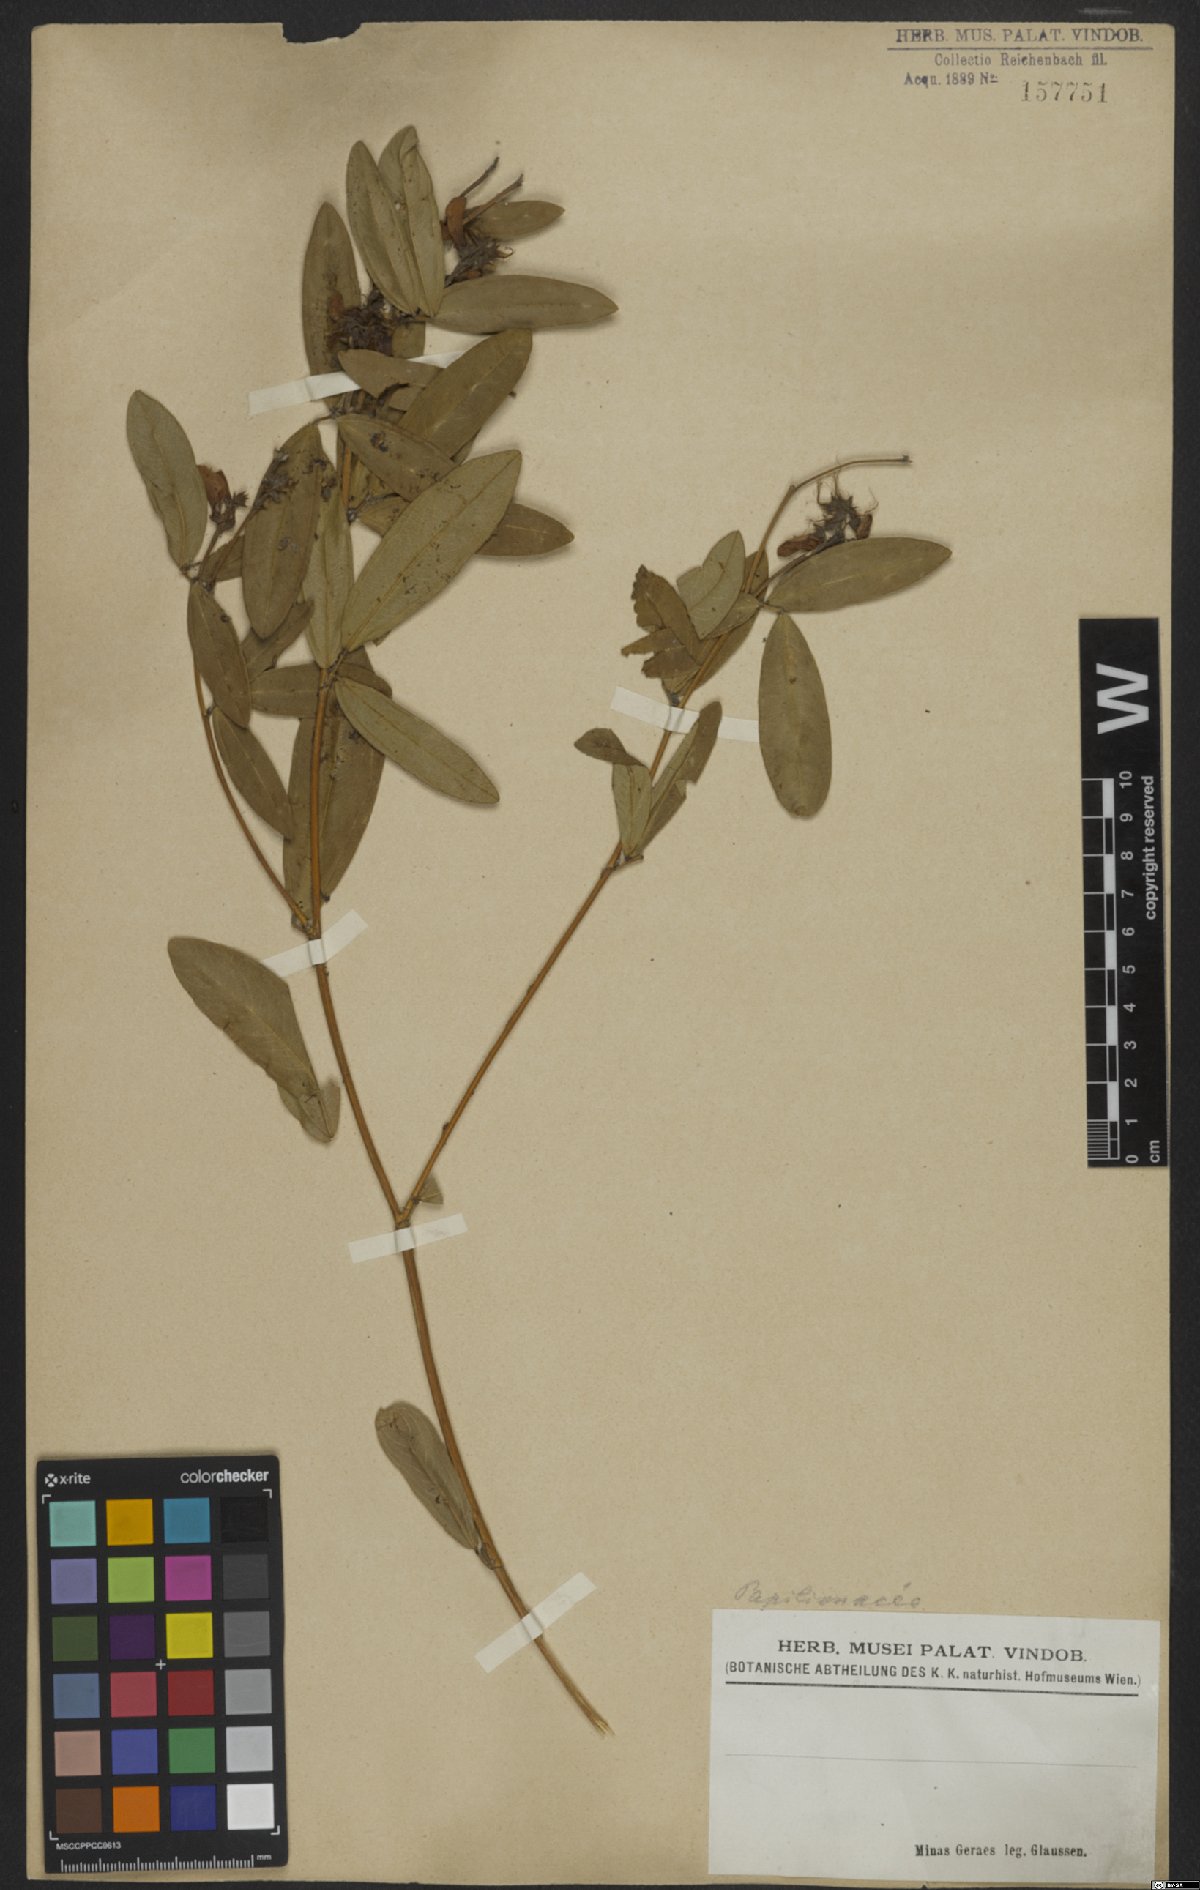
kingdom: Plantae
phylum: Tracheophyta
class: Magnoliopsida
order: Fabales
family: Fabaceae
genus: Periandra
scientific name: Periandra
